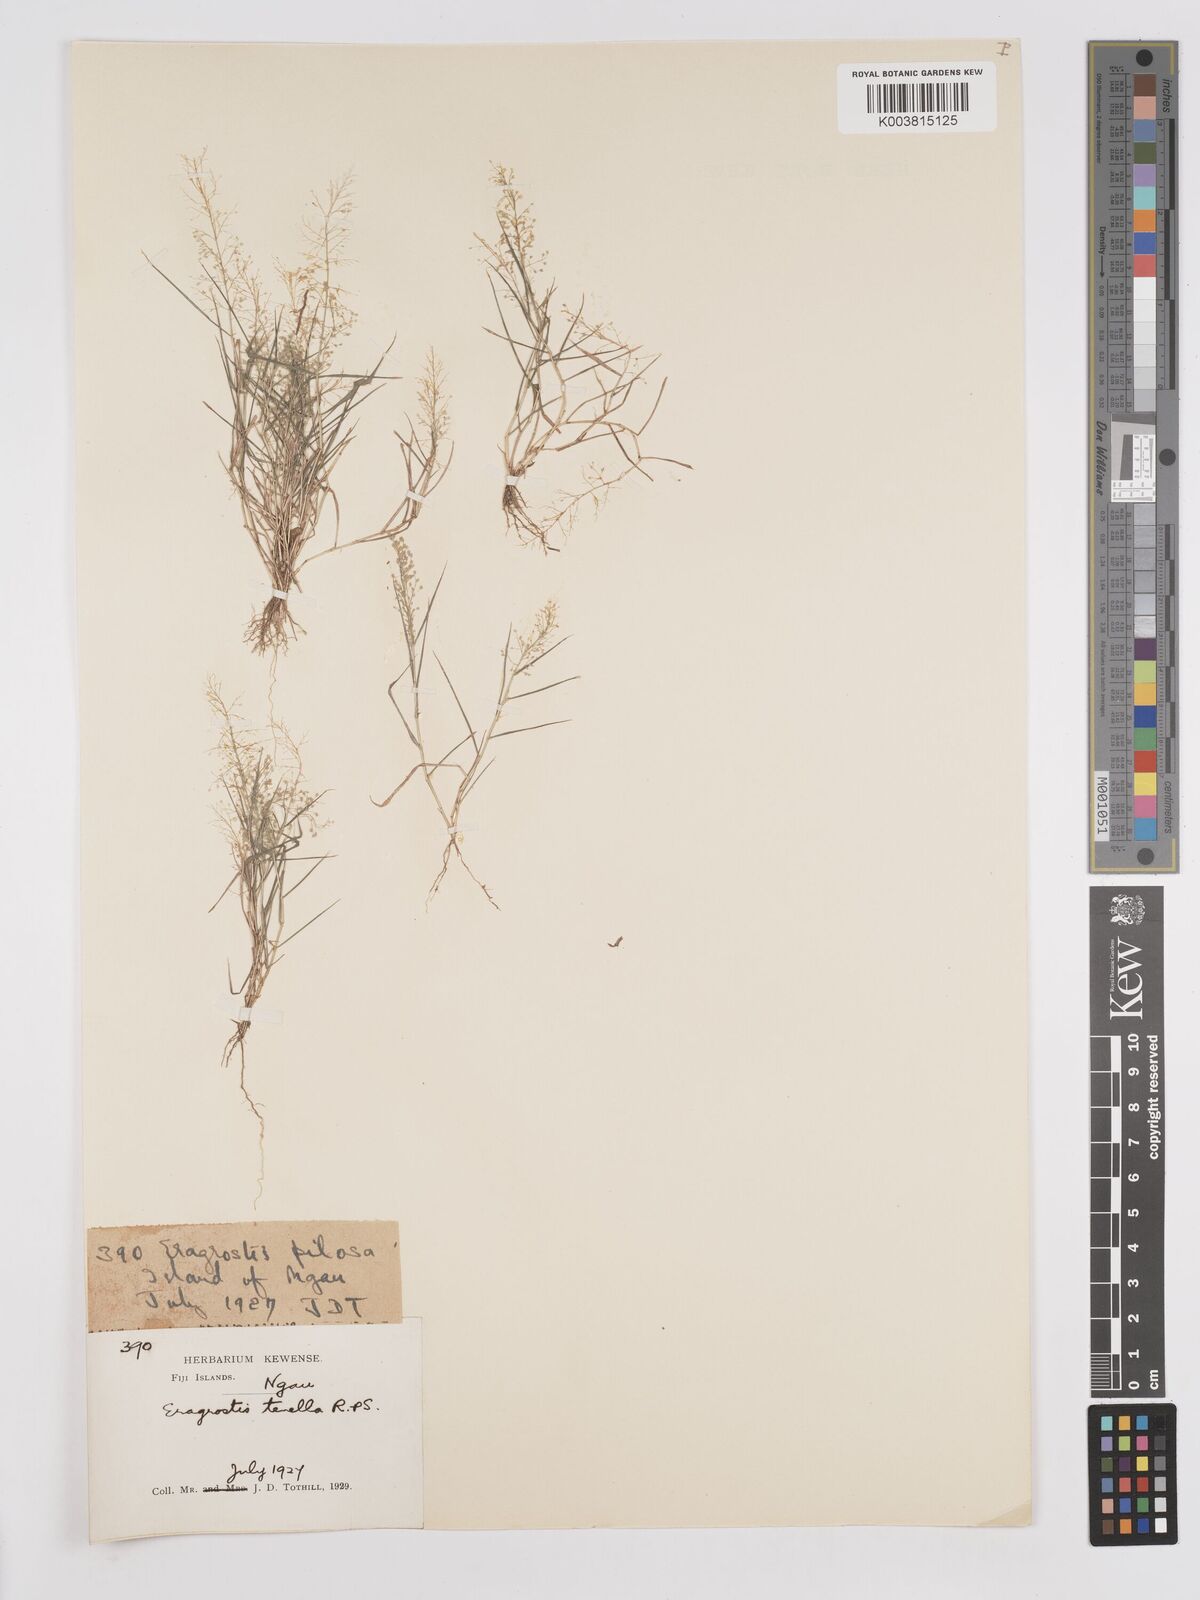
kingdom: Plantae
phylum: Tracheophyta
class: Liliopsida
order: Poales
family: Poaceae
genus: Eragrostis
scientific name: Eragrostis tenella
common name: Japanese lovegrass
